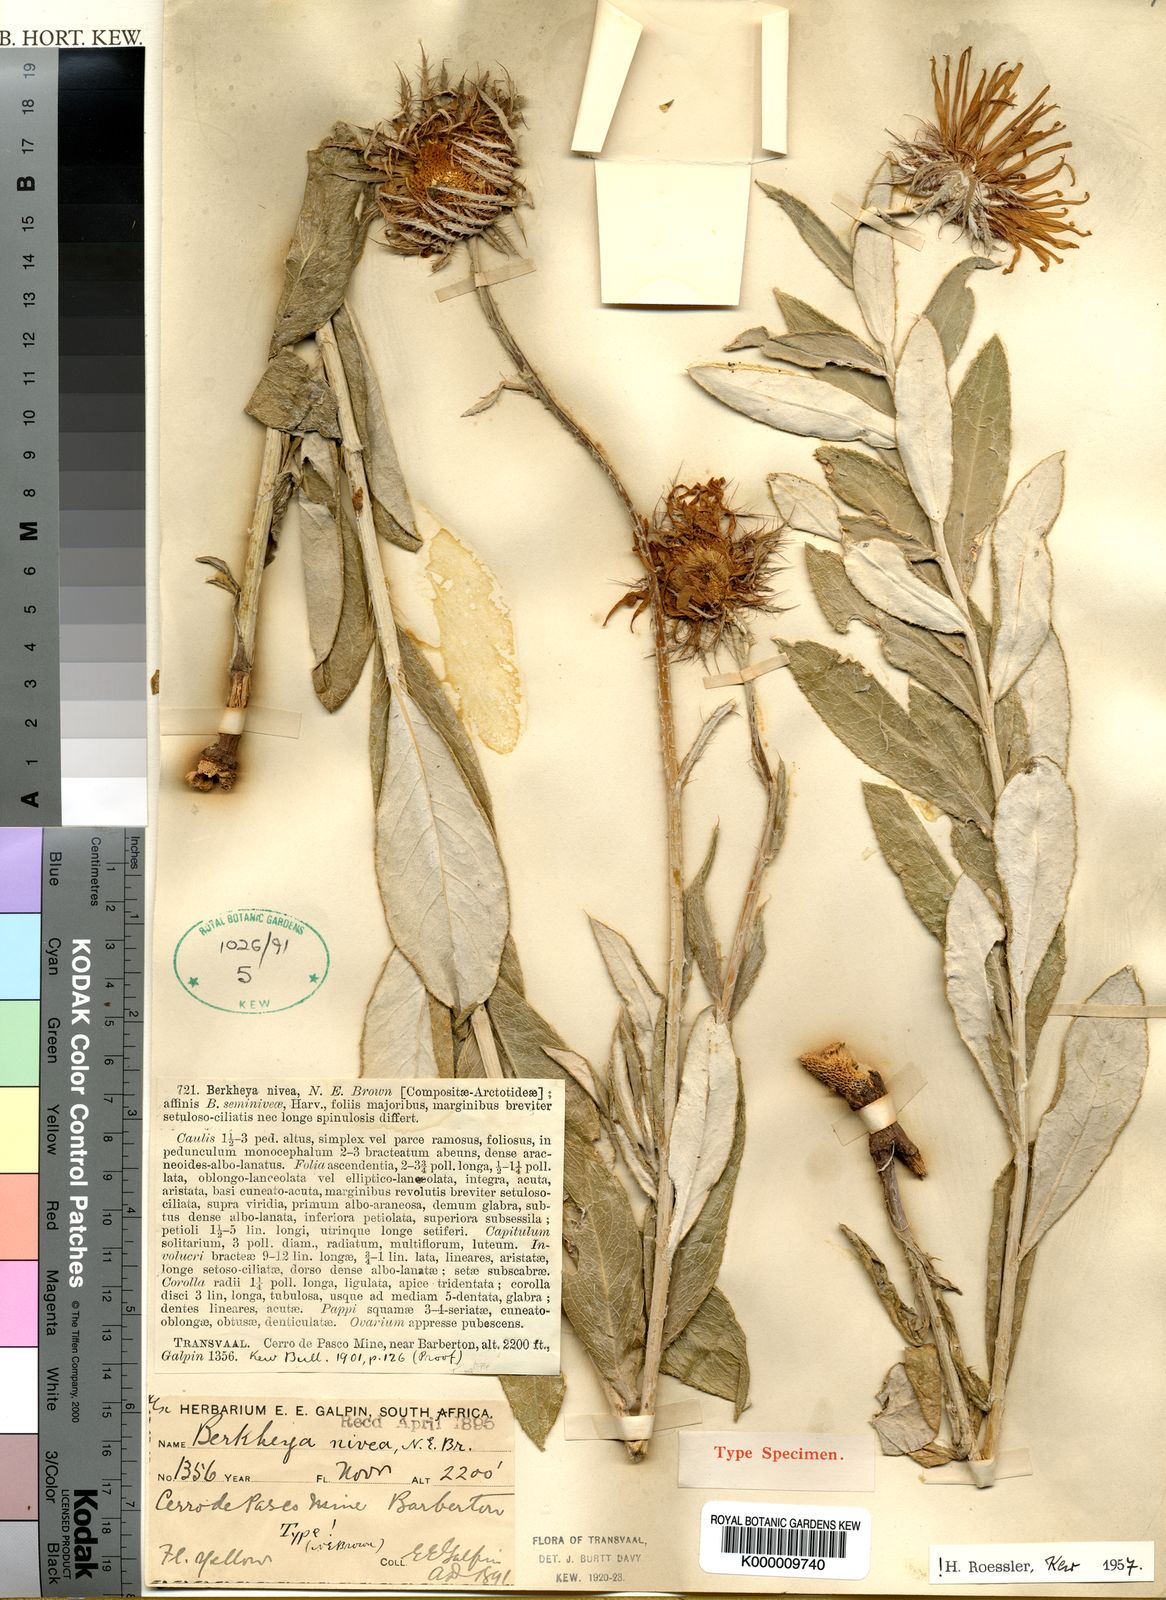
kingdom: Plantae
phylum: Tracheophyta
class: Magnoliopsida
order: Asterales
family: Asteraceae
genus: Berkheya
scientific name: Berkheya
